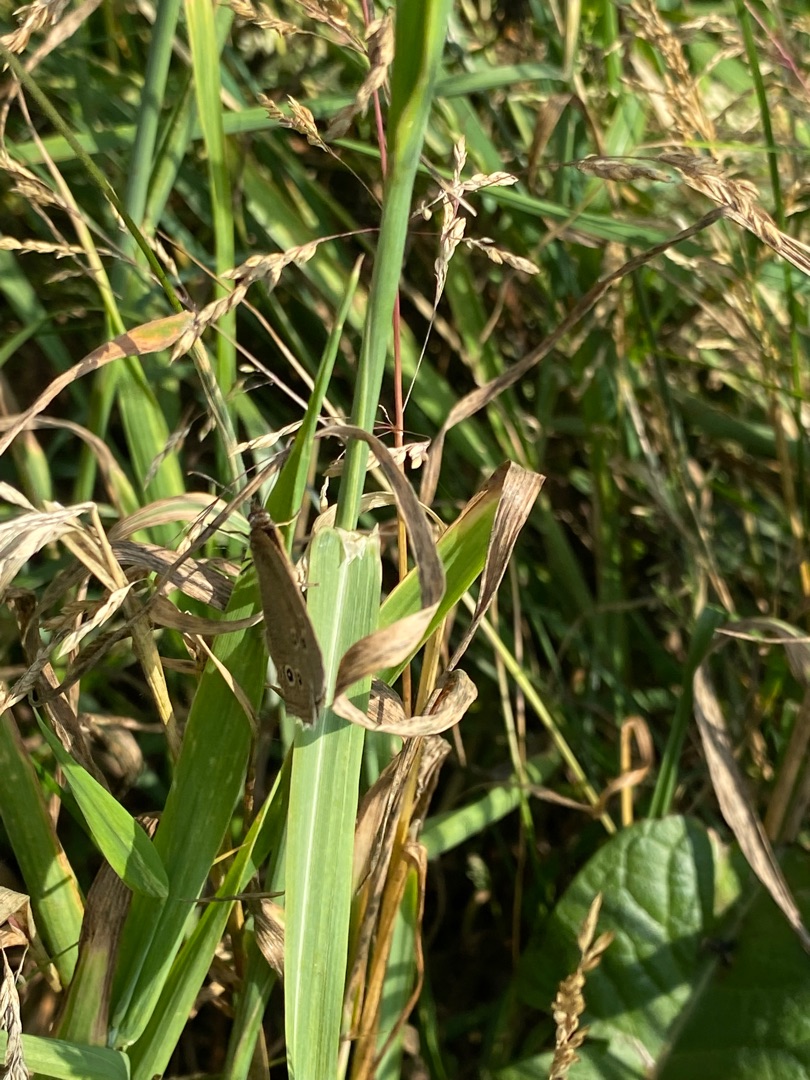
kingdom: Animalia
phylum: Arthropoda
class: Insecta
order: Lepidoptera
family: Nymphalidae
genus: Aphantopus
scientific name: Aphantopus hyperantus
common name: Engrandøje
